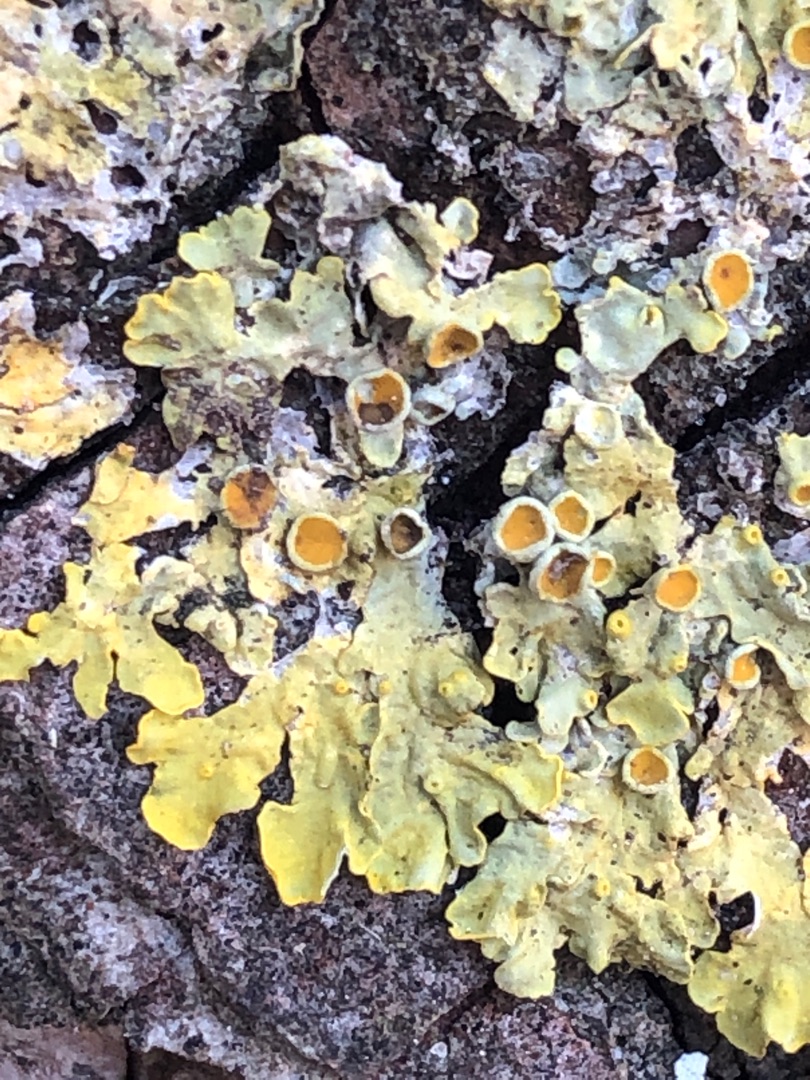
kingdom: Fungi
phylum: Ascomycota
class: Lecanoromycetes
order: Teloschistales
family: Teloschistaceae
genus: Xanthoria
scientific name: Xanthoria parietina
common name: Almindelig væggelav
